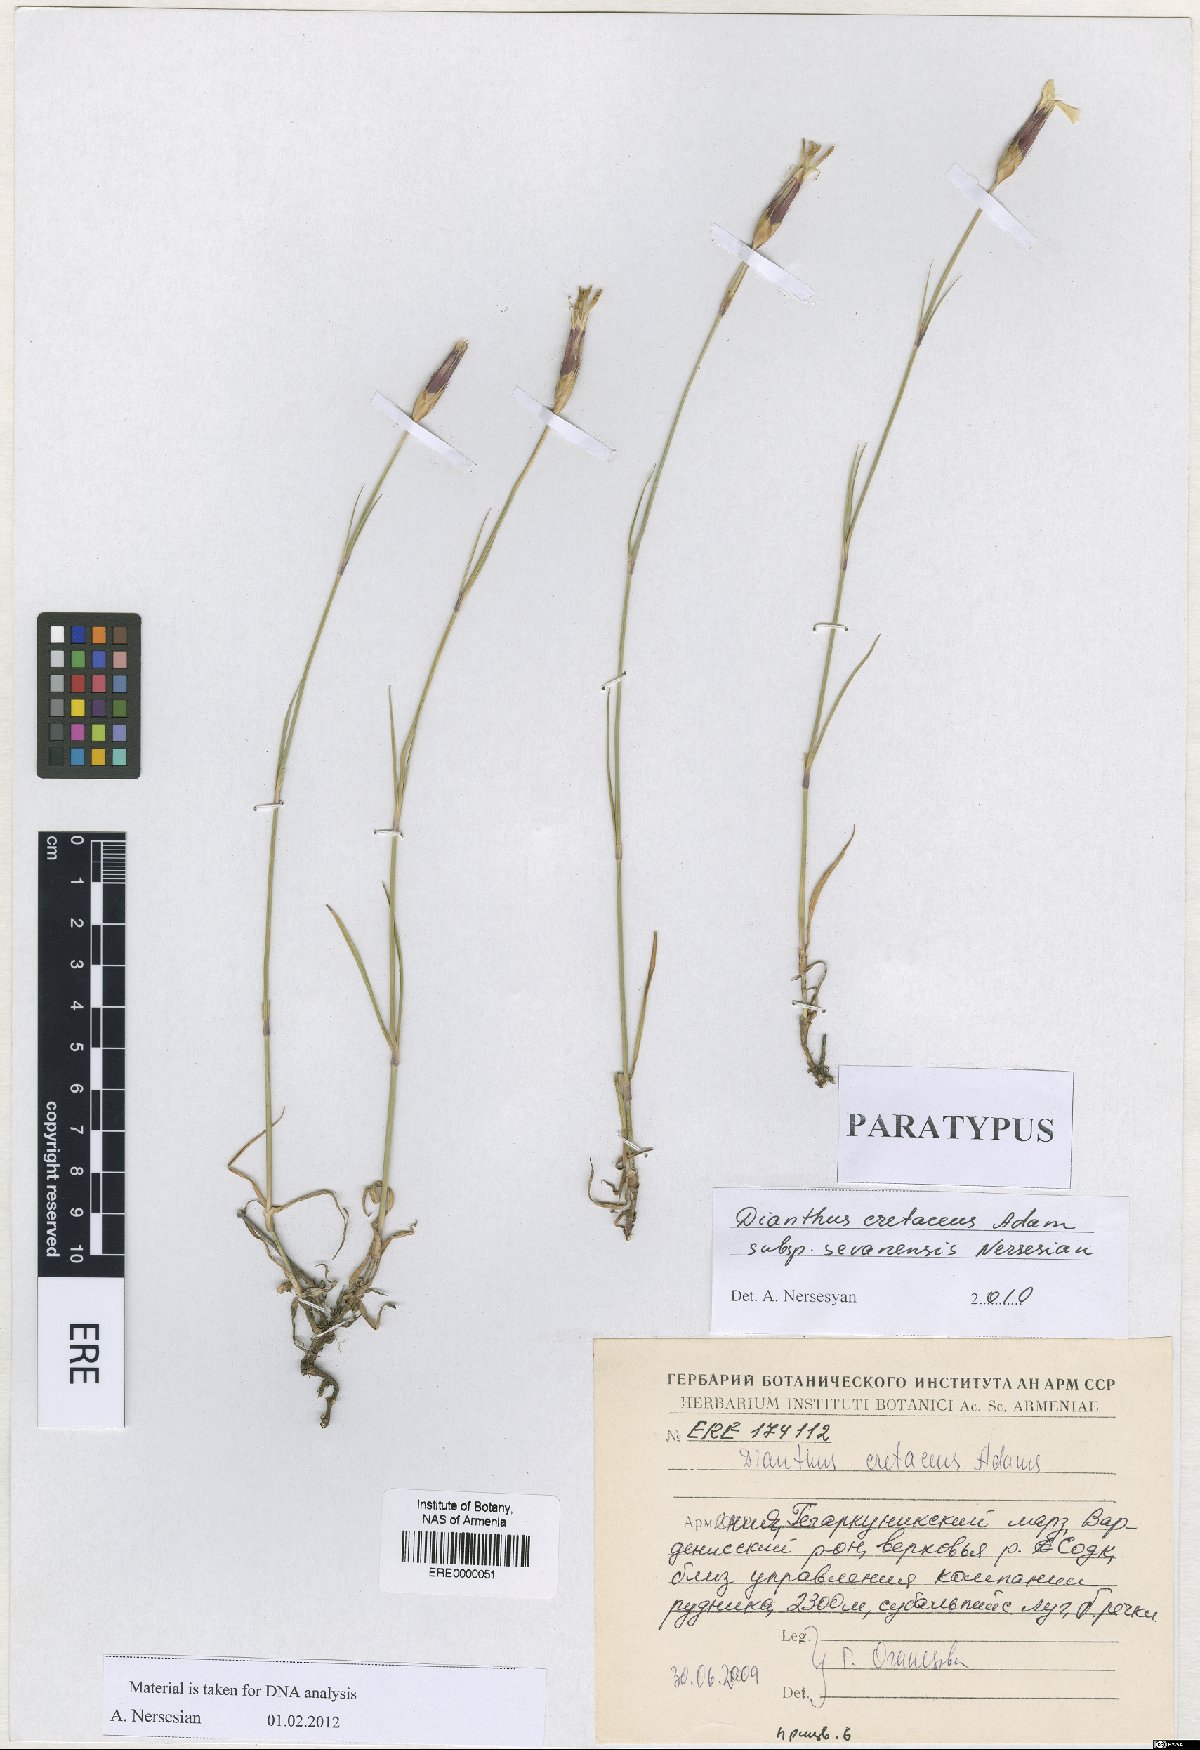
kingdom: Plantae
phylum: Tracheophyta
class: Magnoliopsida
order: Caryophyllales
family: Caryophyllaceae
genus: Dianthus
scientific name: Dianthus cretaceus
